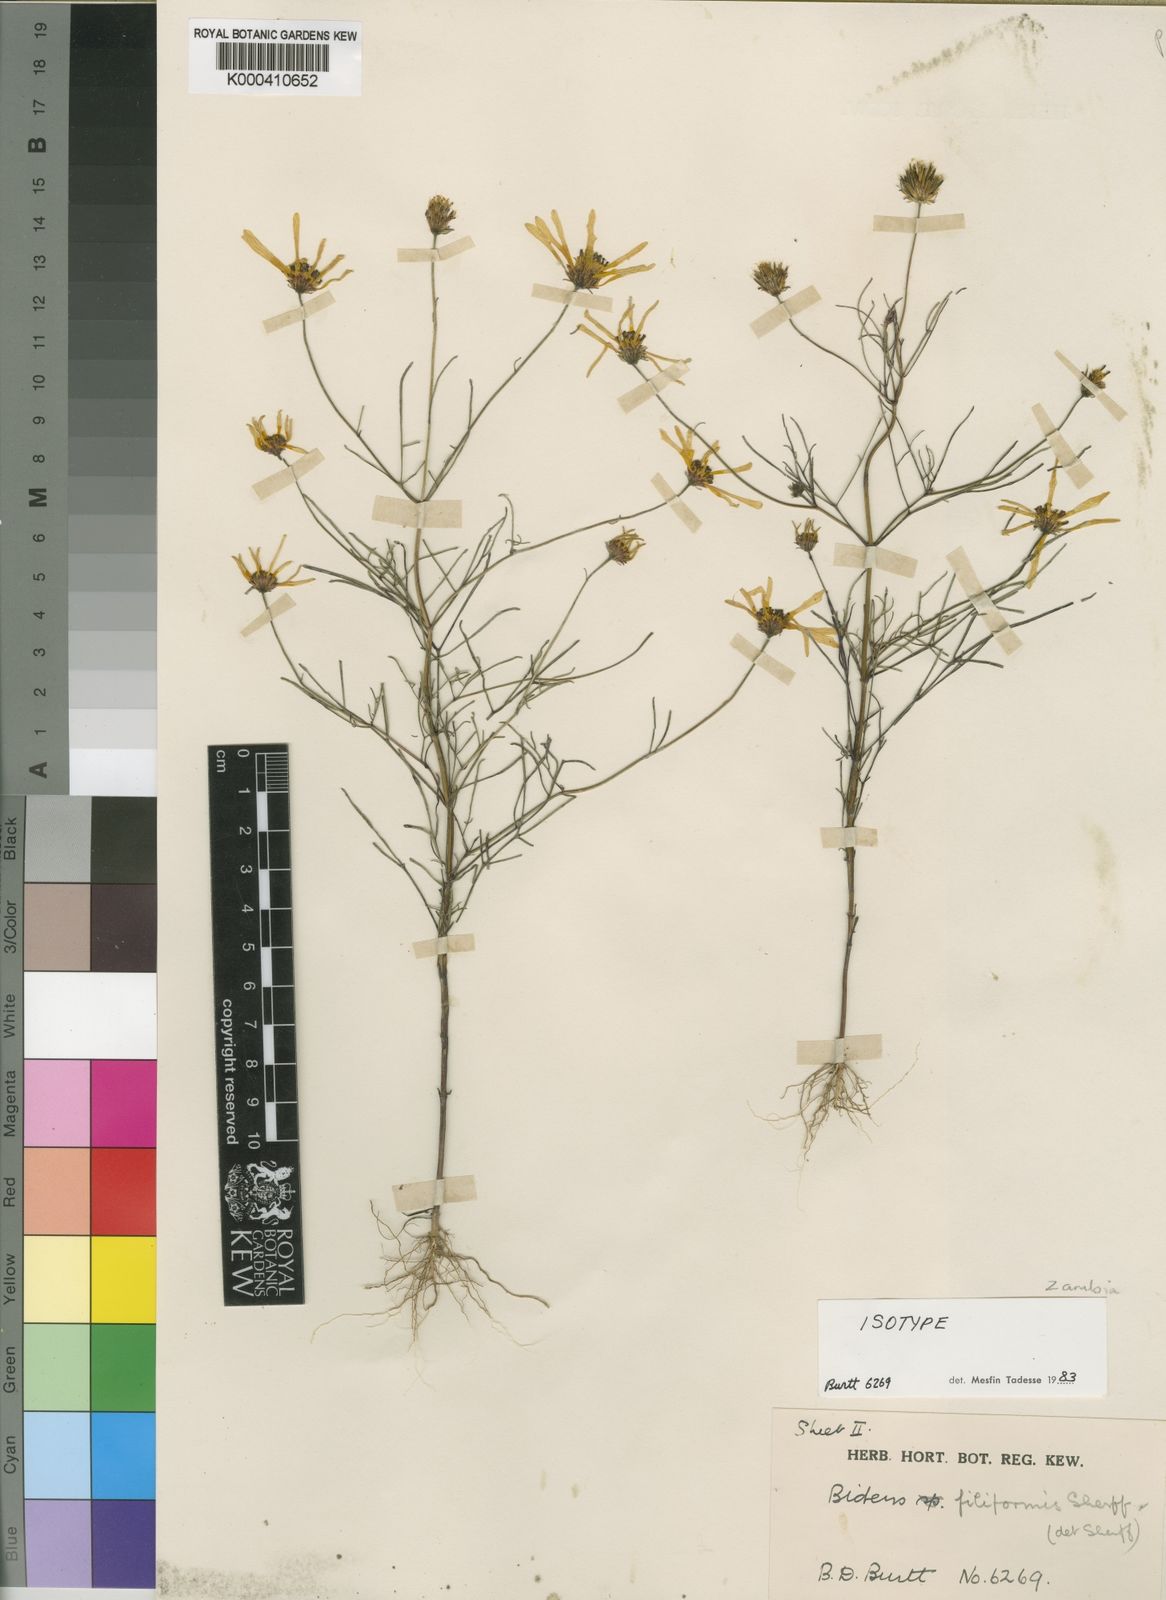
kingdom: Plantae
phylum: Tracheophyta
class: Magnoliopsida
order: Asterales
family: Asteraceae
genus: Bidens
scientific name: Bidens diversa
